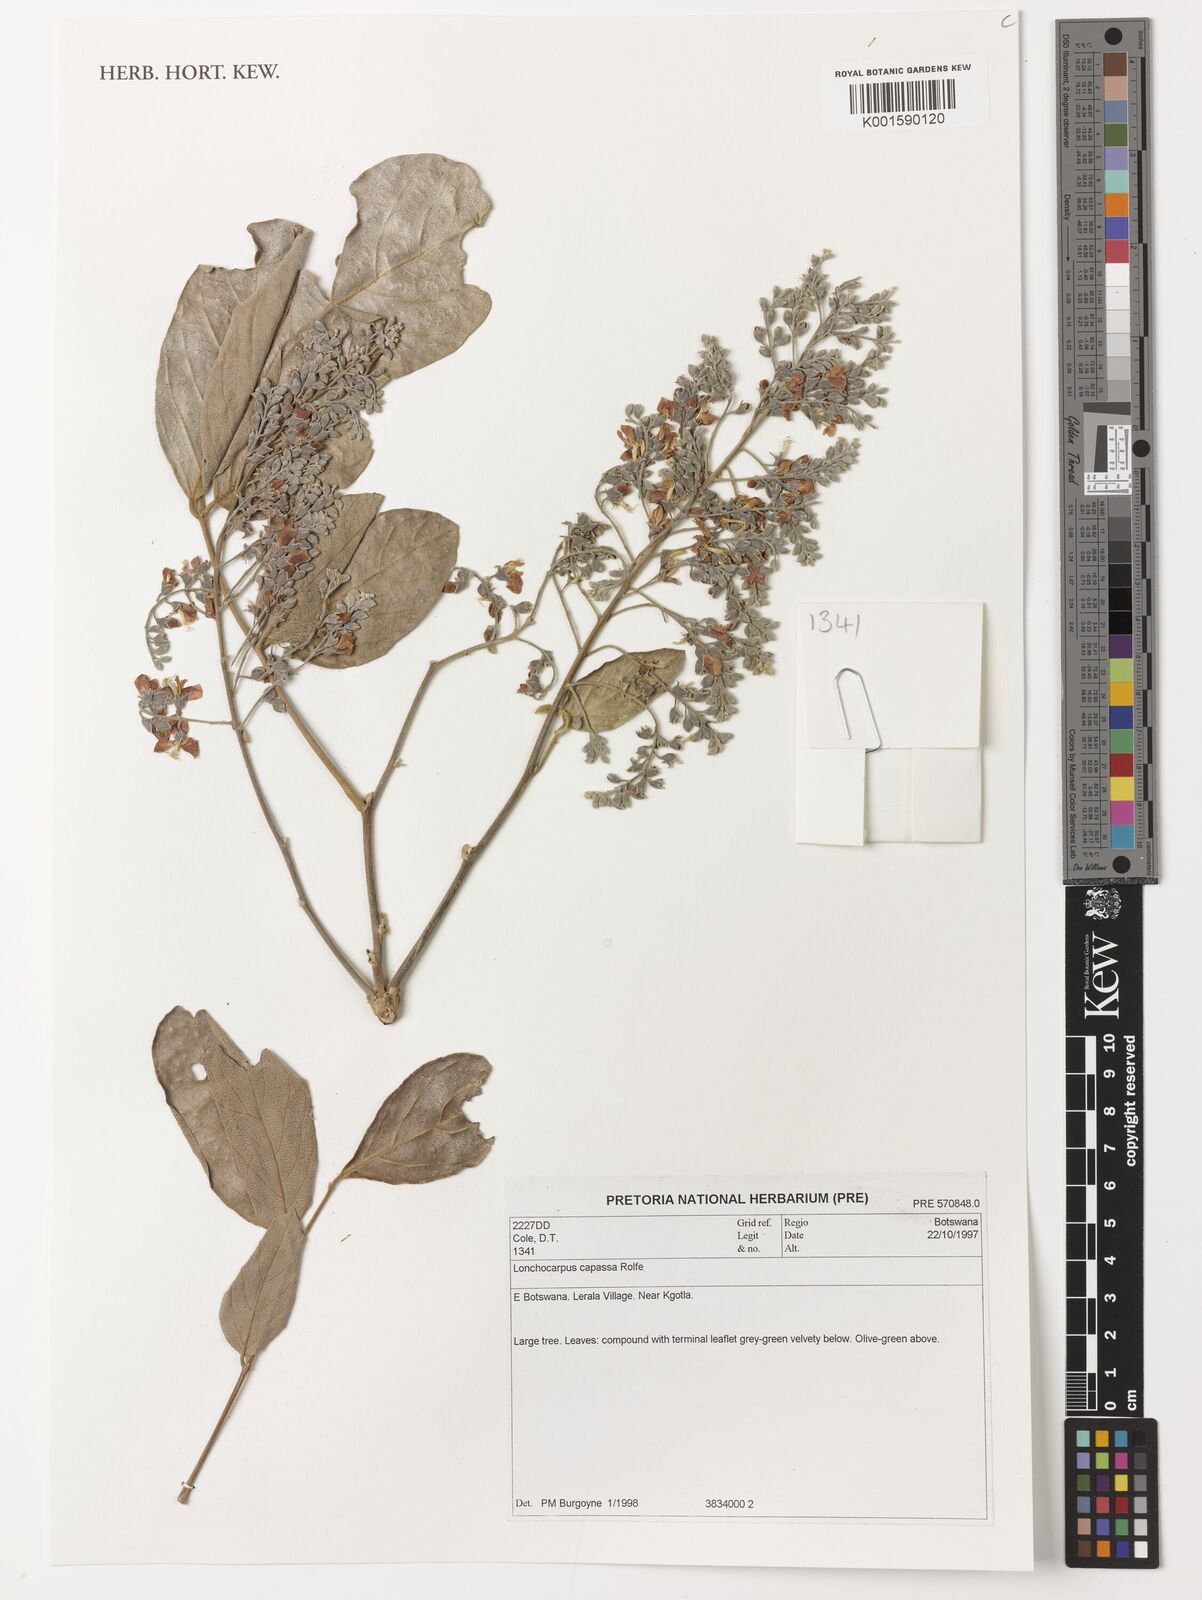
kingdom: Plantae
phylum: Tracheophyta
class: Magnoliopsida
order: Fabales
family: Fabaceae
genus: Philenoptera
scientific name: Philenoptera violacea
